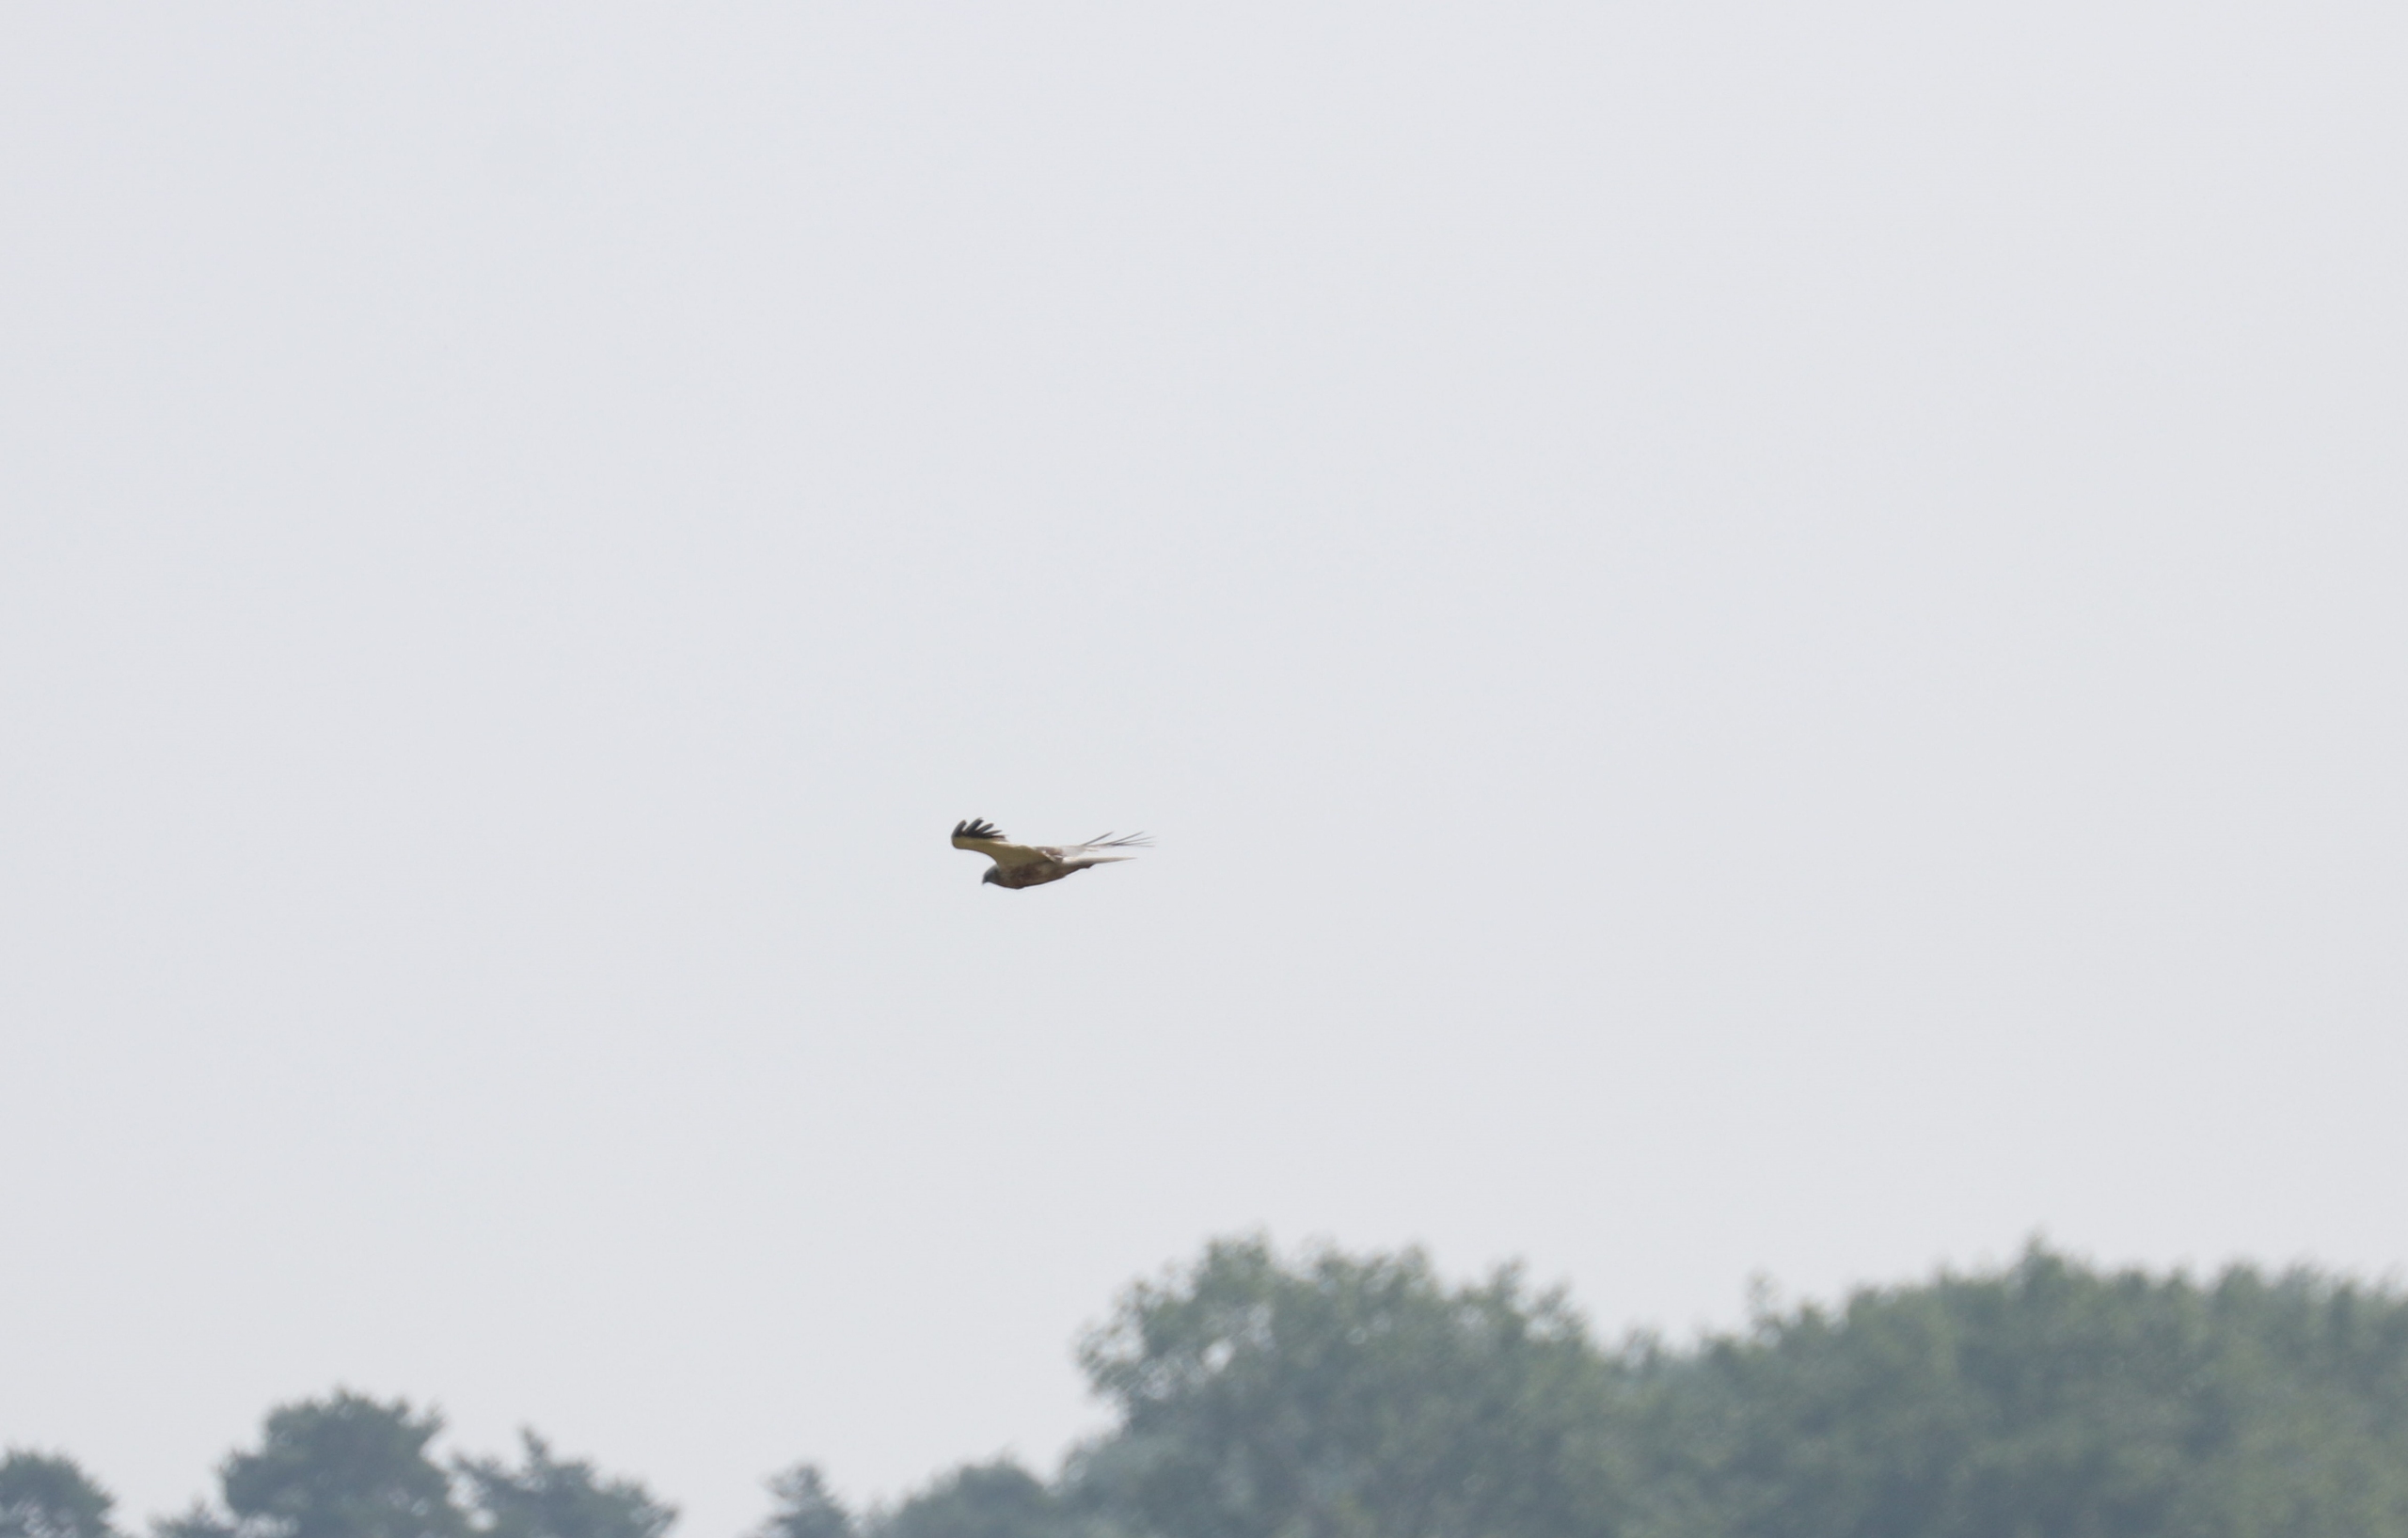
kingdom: Animalia
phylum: Chordata
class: Aves
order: Accipitriformes
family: Accipitridae
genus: Circus
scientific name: Circus aeruginosus
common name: Rørhøg
